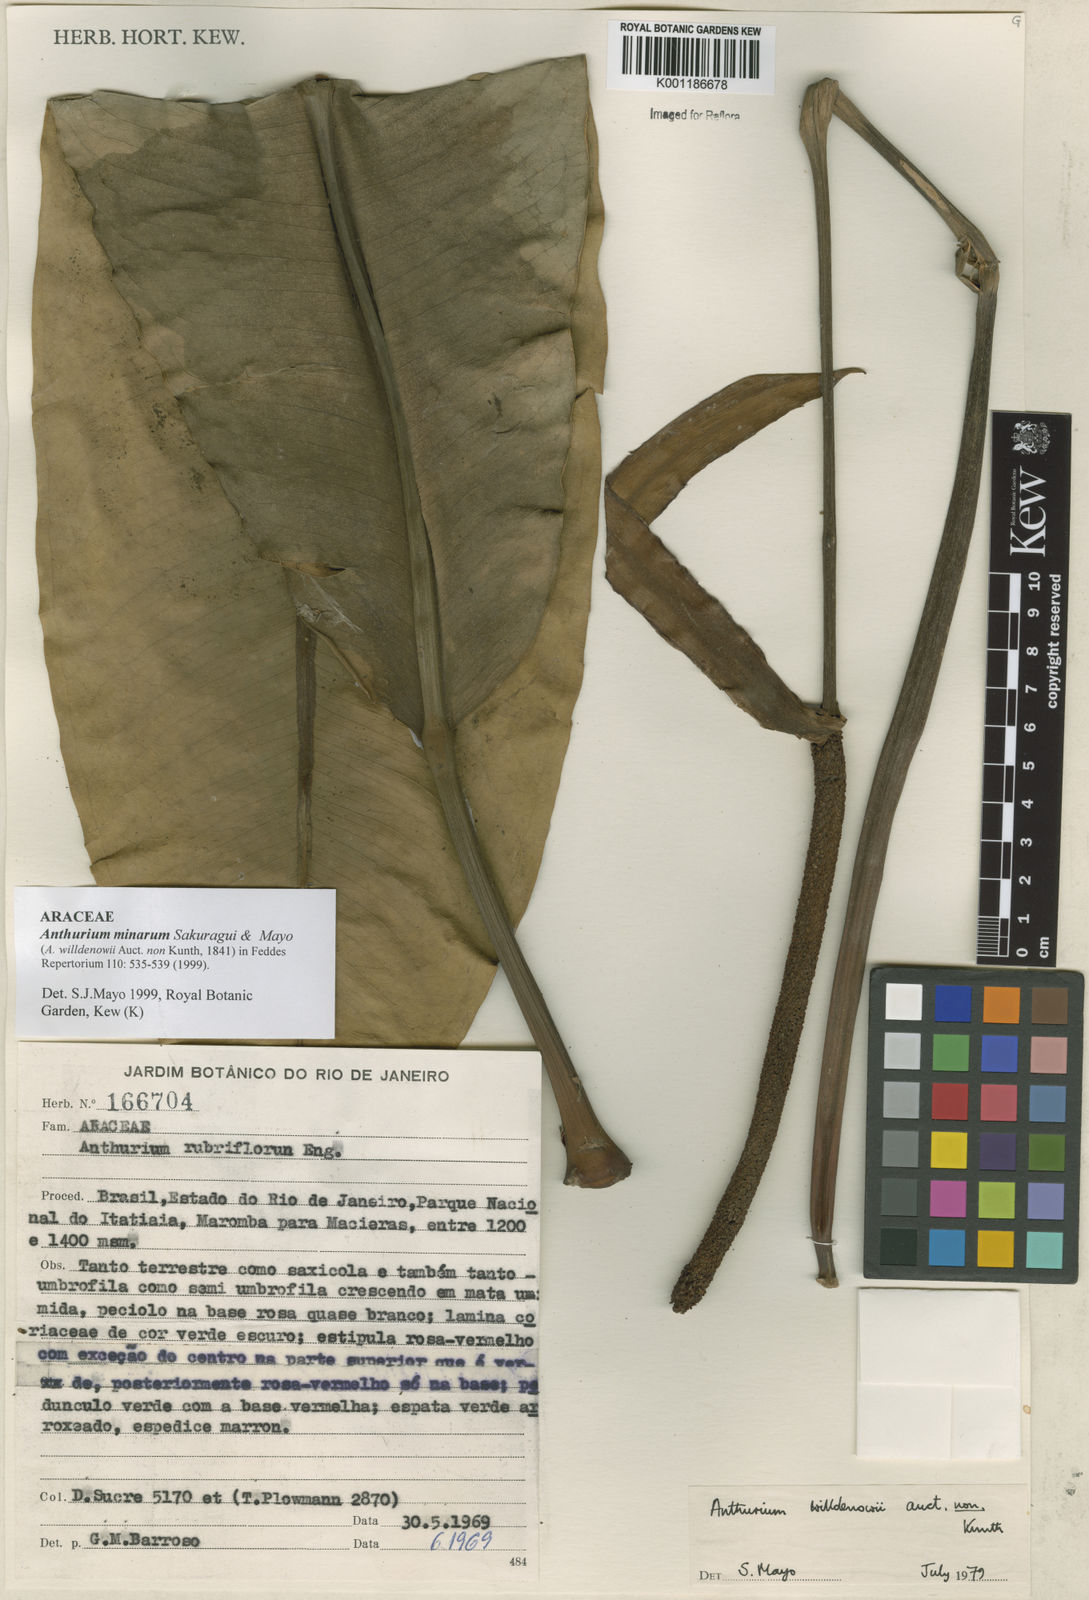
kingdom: Plantae
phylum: Tracheophyta
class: Liliopsida
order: Alismatales
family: Araceae
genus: Anthurium
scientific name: Anthurium minarum
